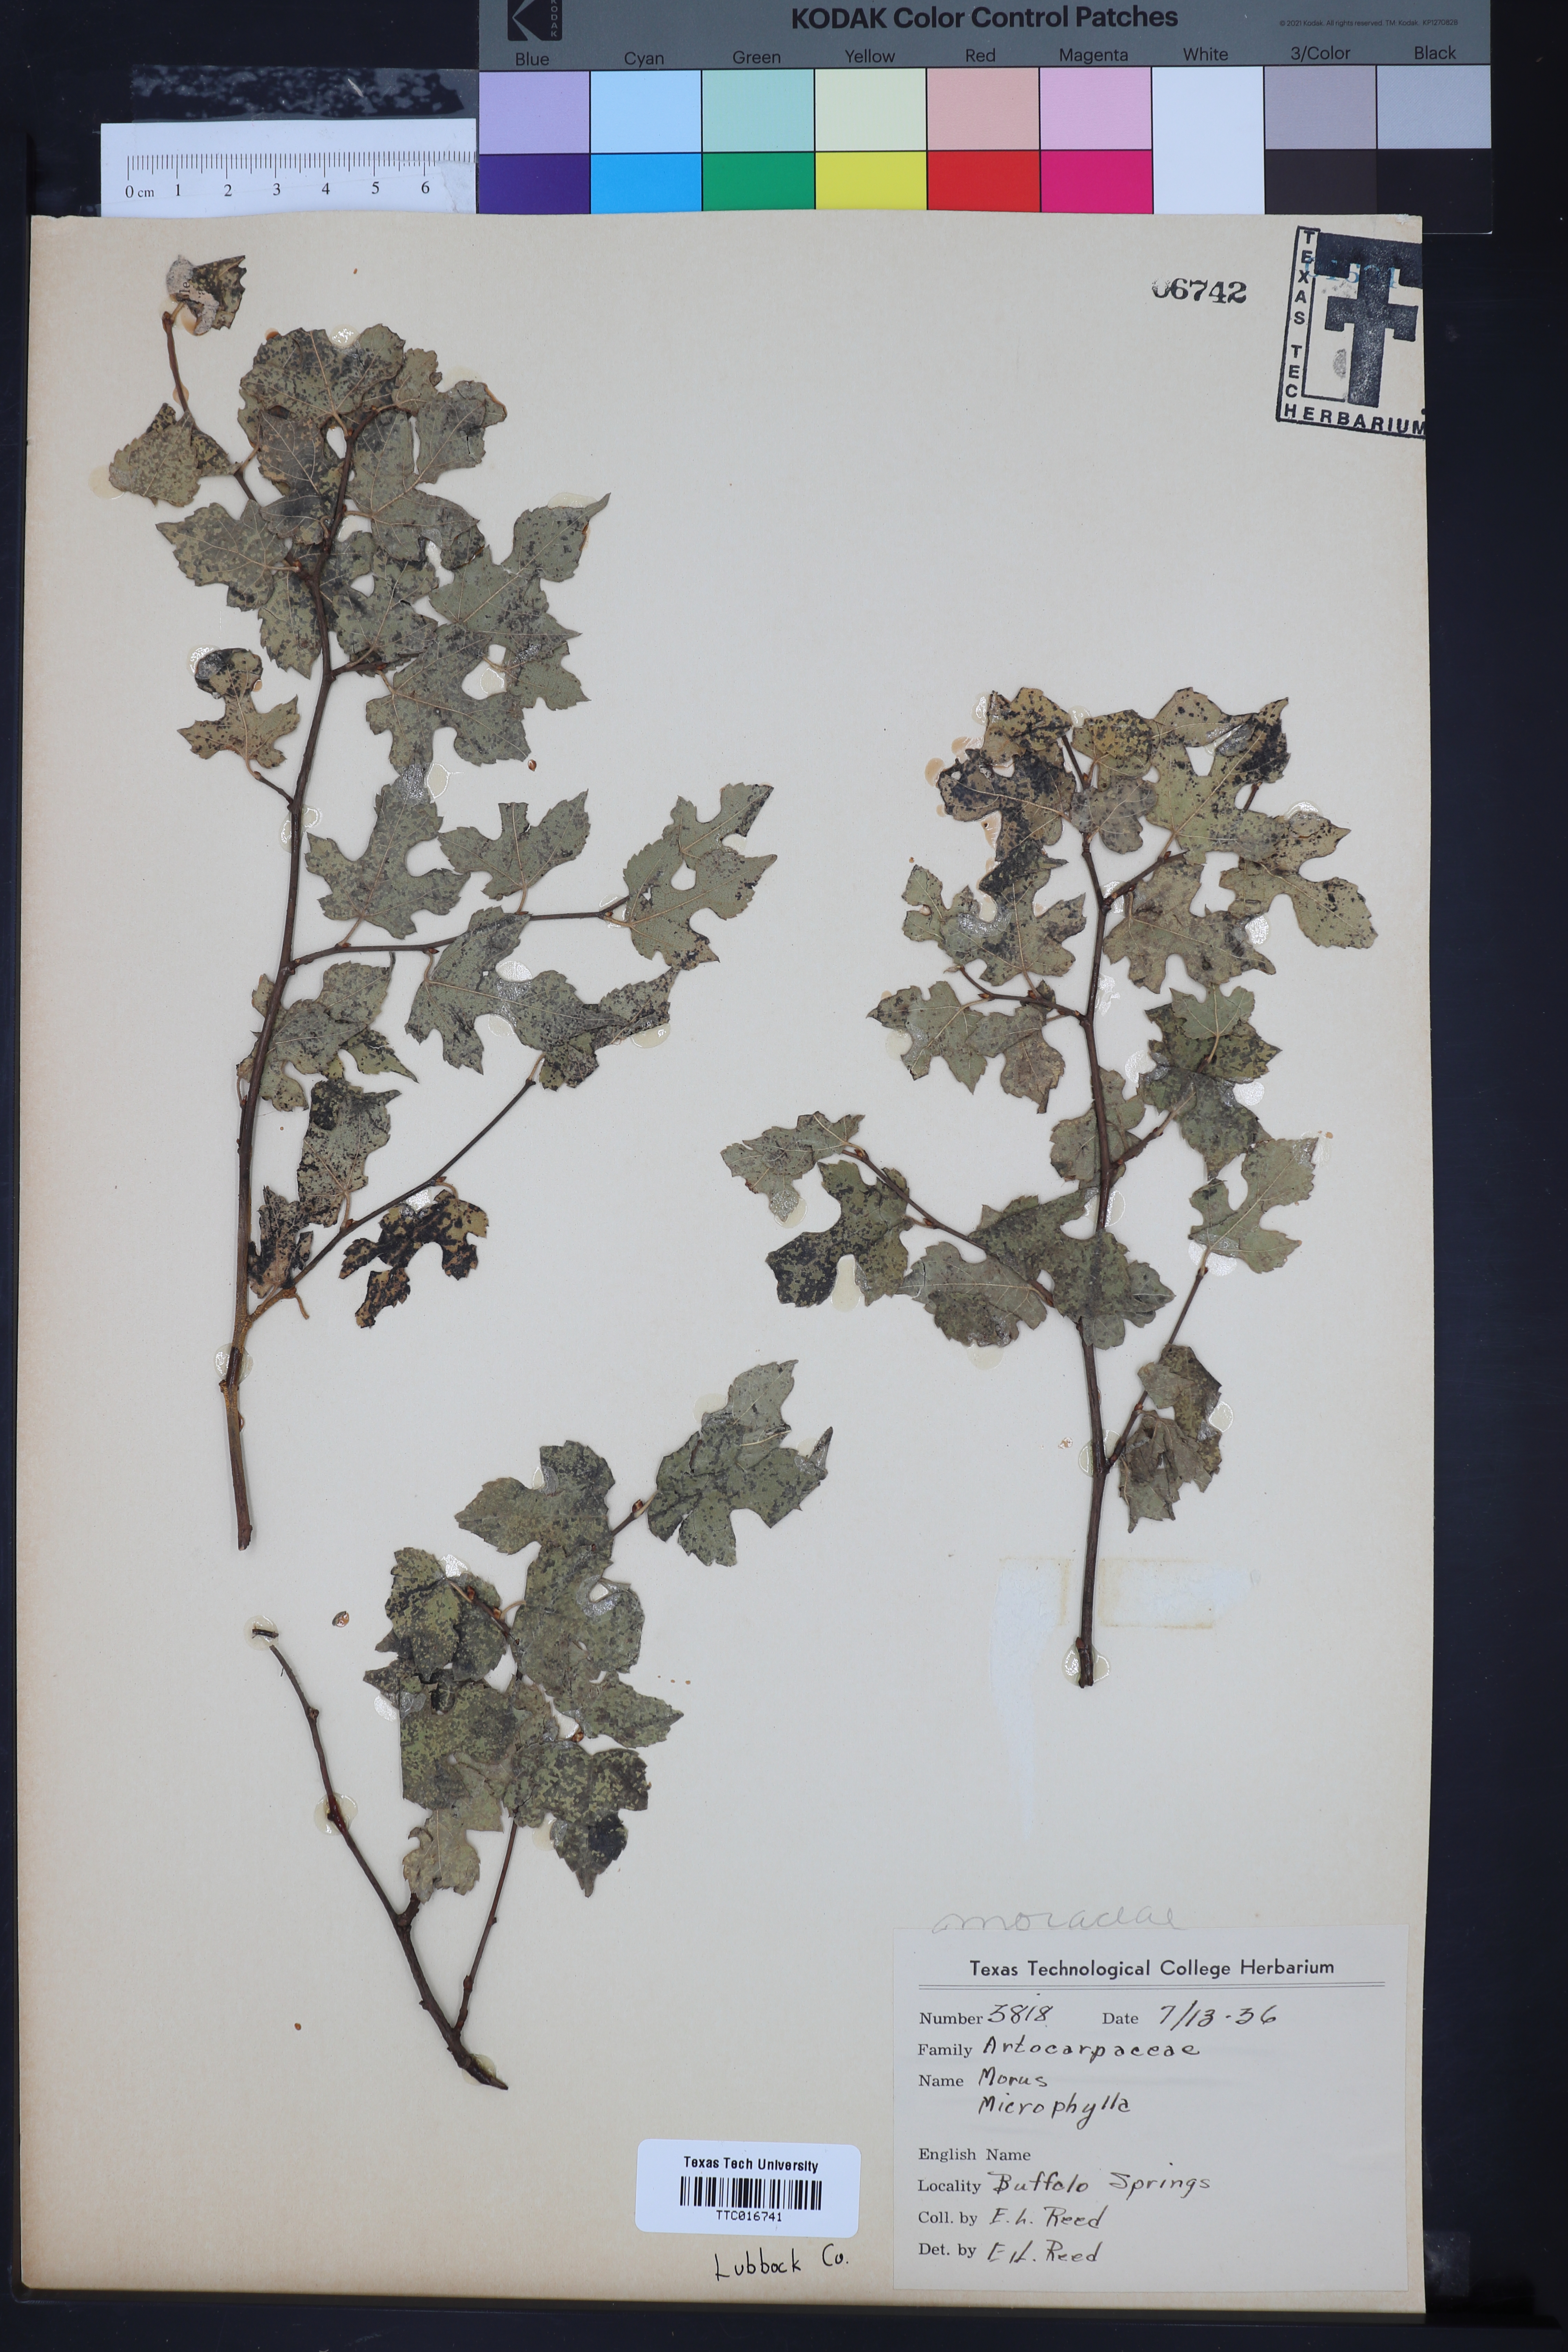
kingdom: Plantae
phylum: Tracheophyta
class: Magnoliopsida
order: Rosales
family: Moraceae
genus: Morus
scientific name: Morus microphylla
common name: Mexican mulberry
